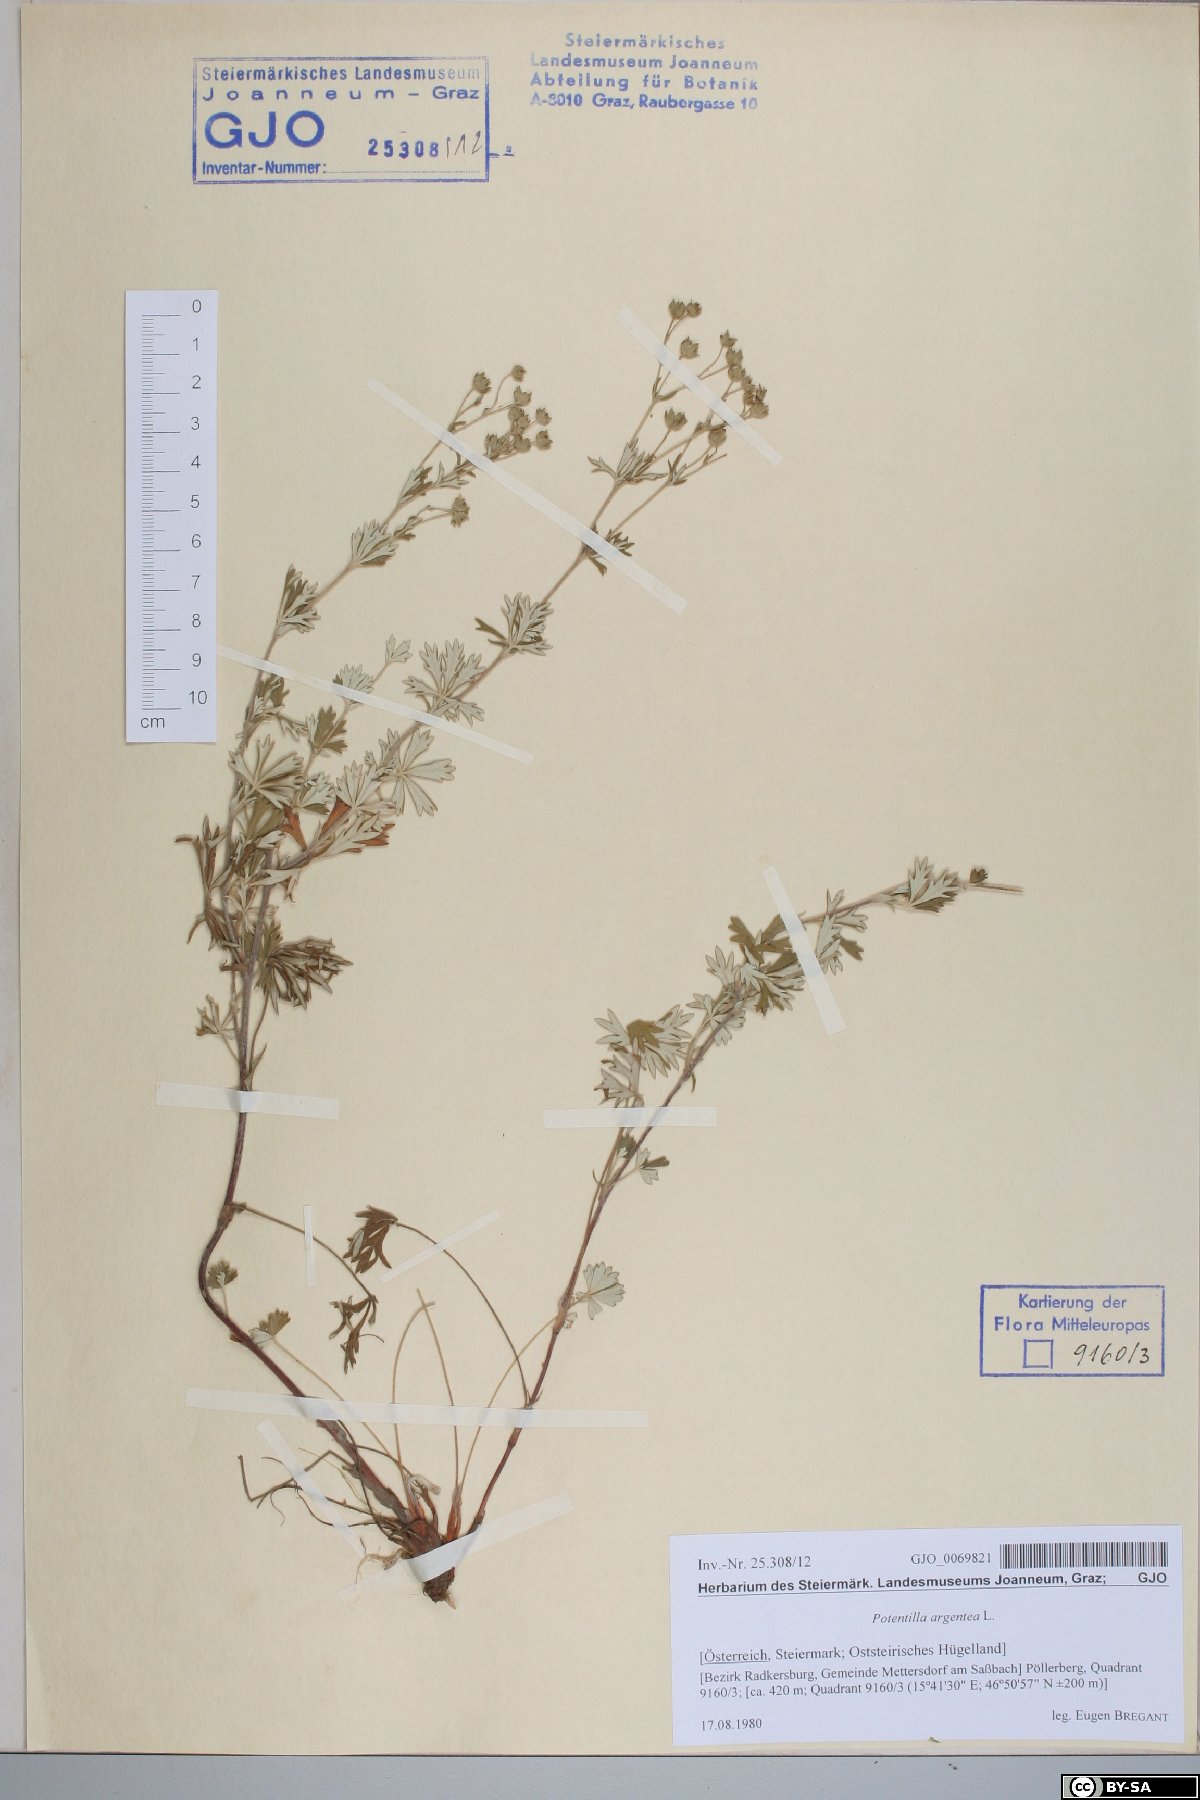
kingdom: Plantae
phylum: Tracheophyta
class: Magnoliopsida
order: Rosales
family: Rosaceae
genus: Potentilla
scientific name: Potentilla argentea
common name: Hoary cinquefoil
